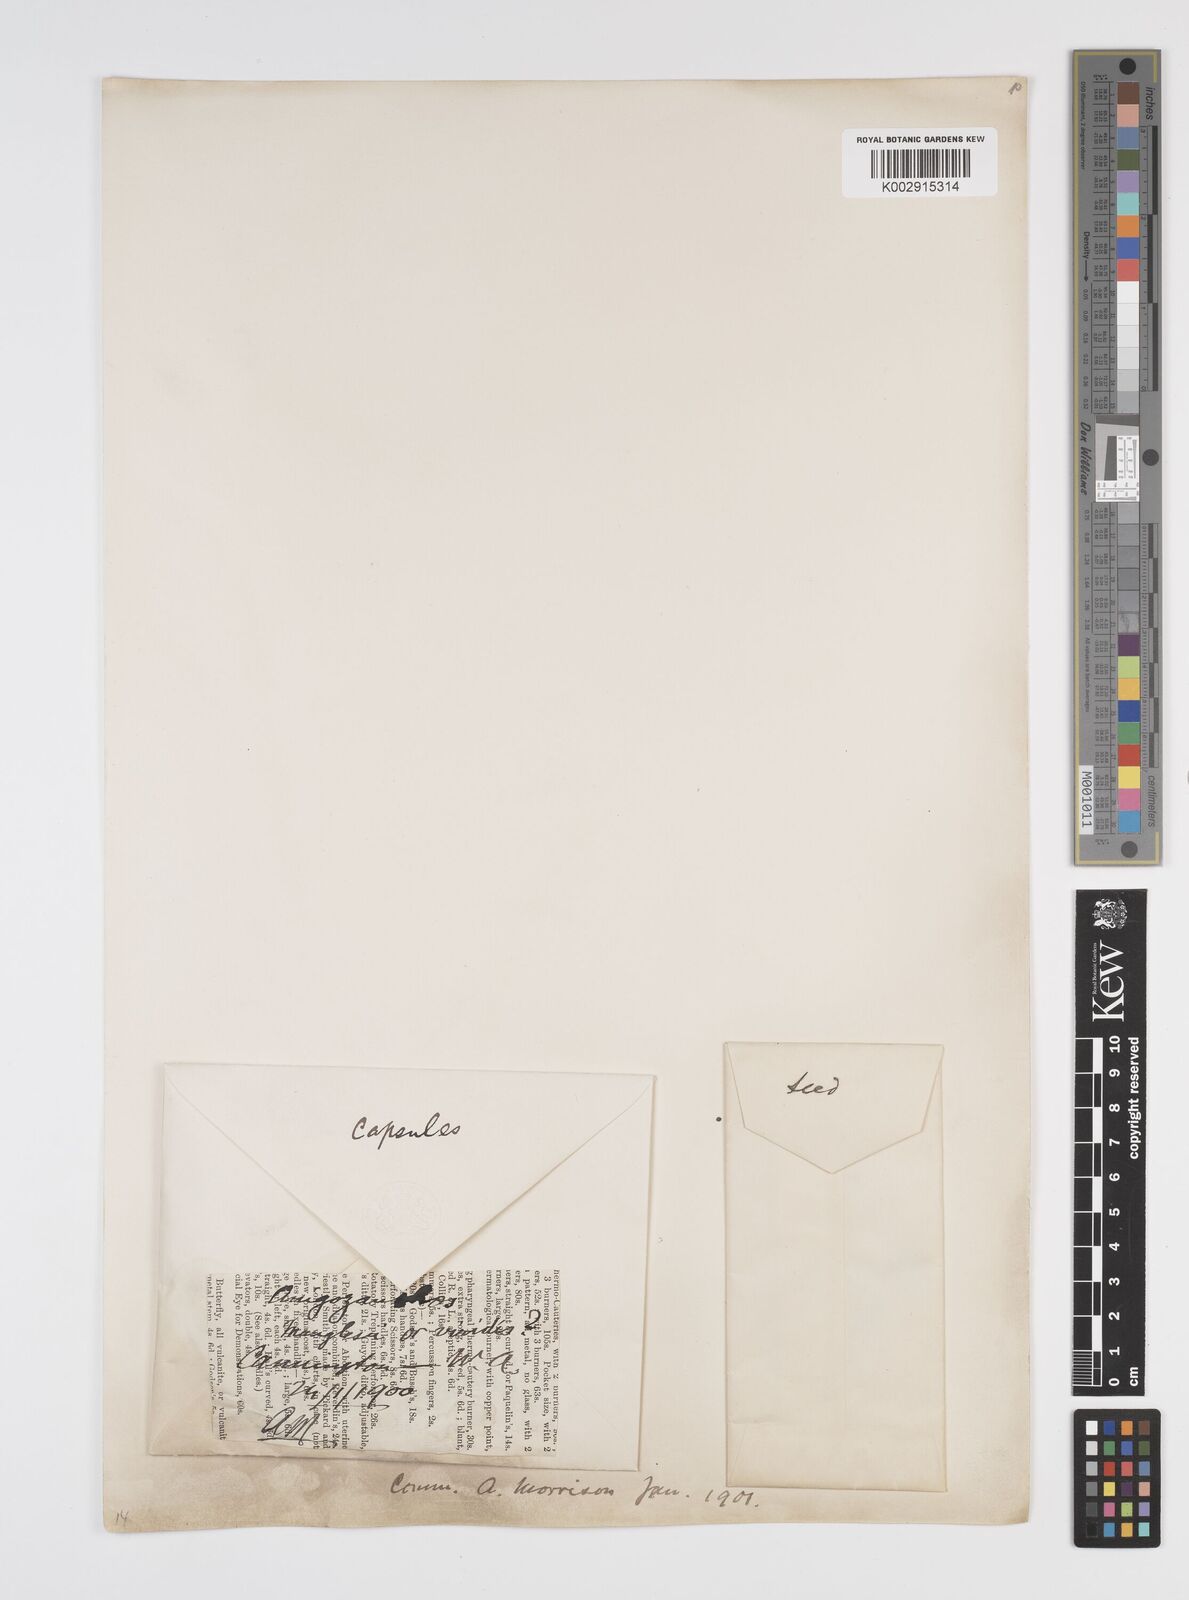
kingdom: Plantae
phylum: Tracheophyta
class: Liliopsida
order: Commelinales
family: Haemodoraceae
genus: Anigozanthos
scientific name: Anigozanthos manglesii
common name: Mangles's kangaroo-paw
